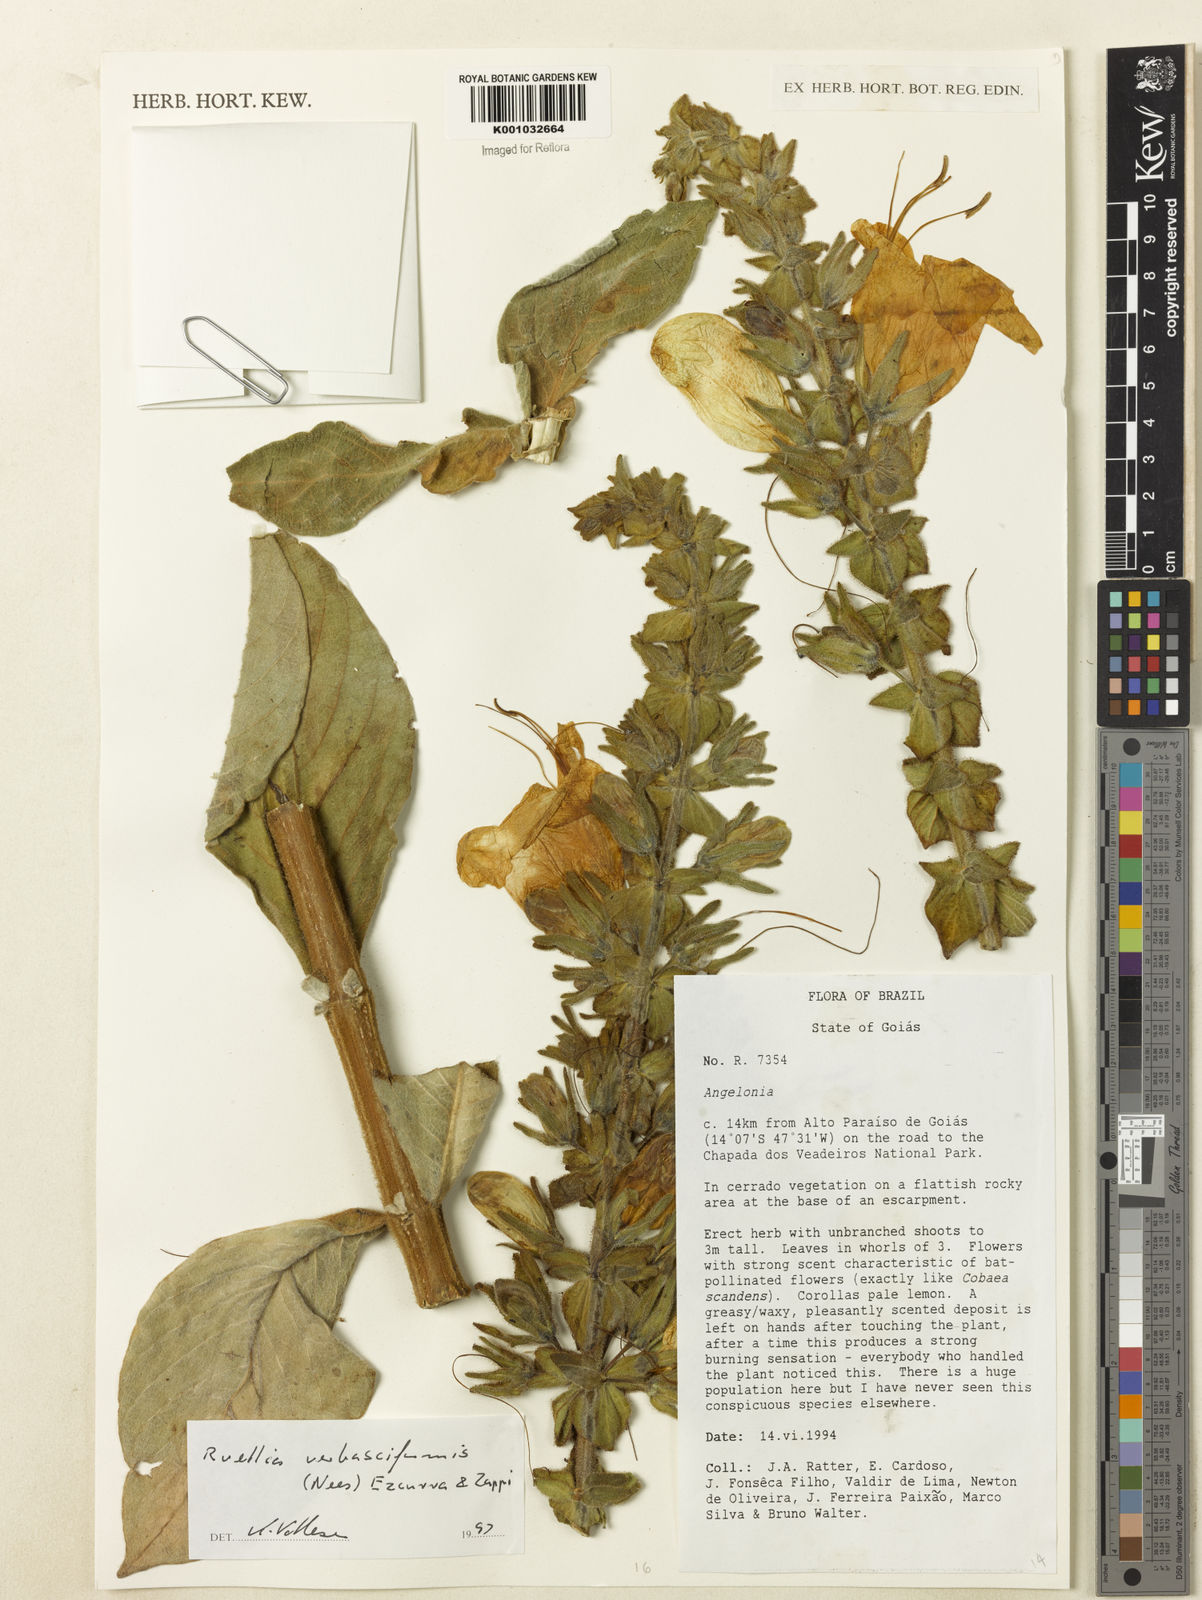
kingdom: Plantae
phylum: Tracheophyta
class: Magnoliopsida
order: Lamiales
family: Acanthaceae
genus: Ruellia
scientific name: Ruellia verbasciformis
